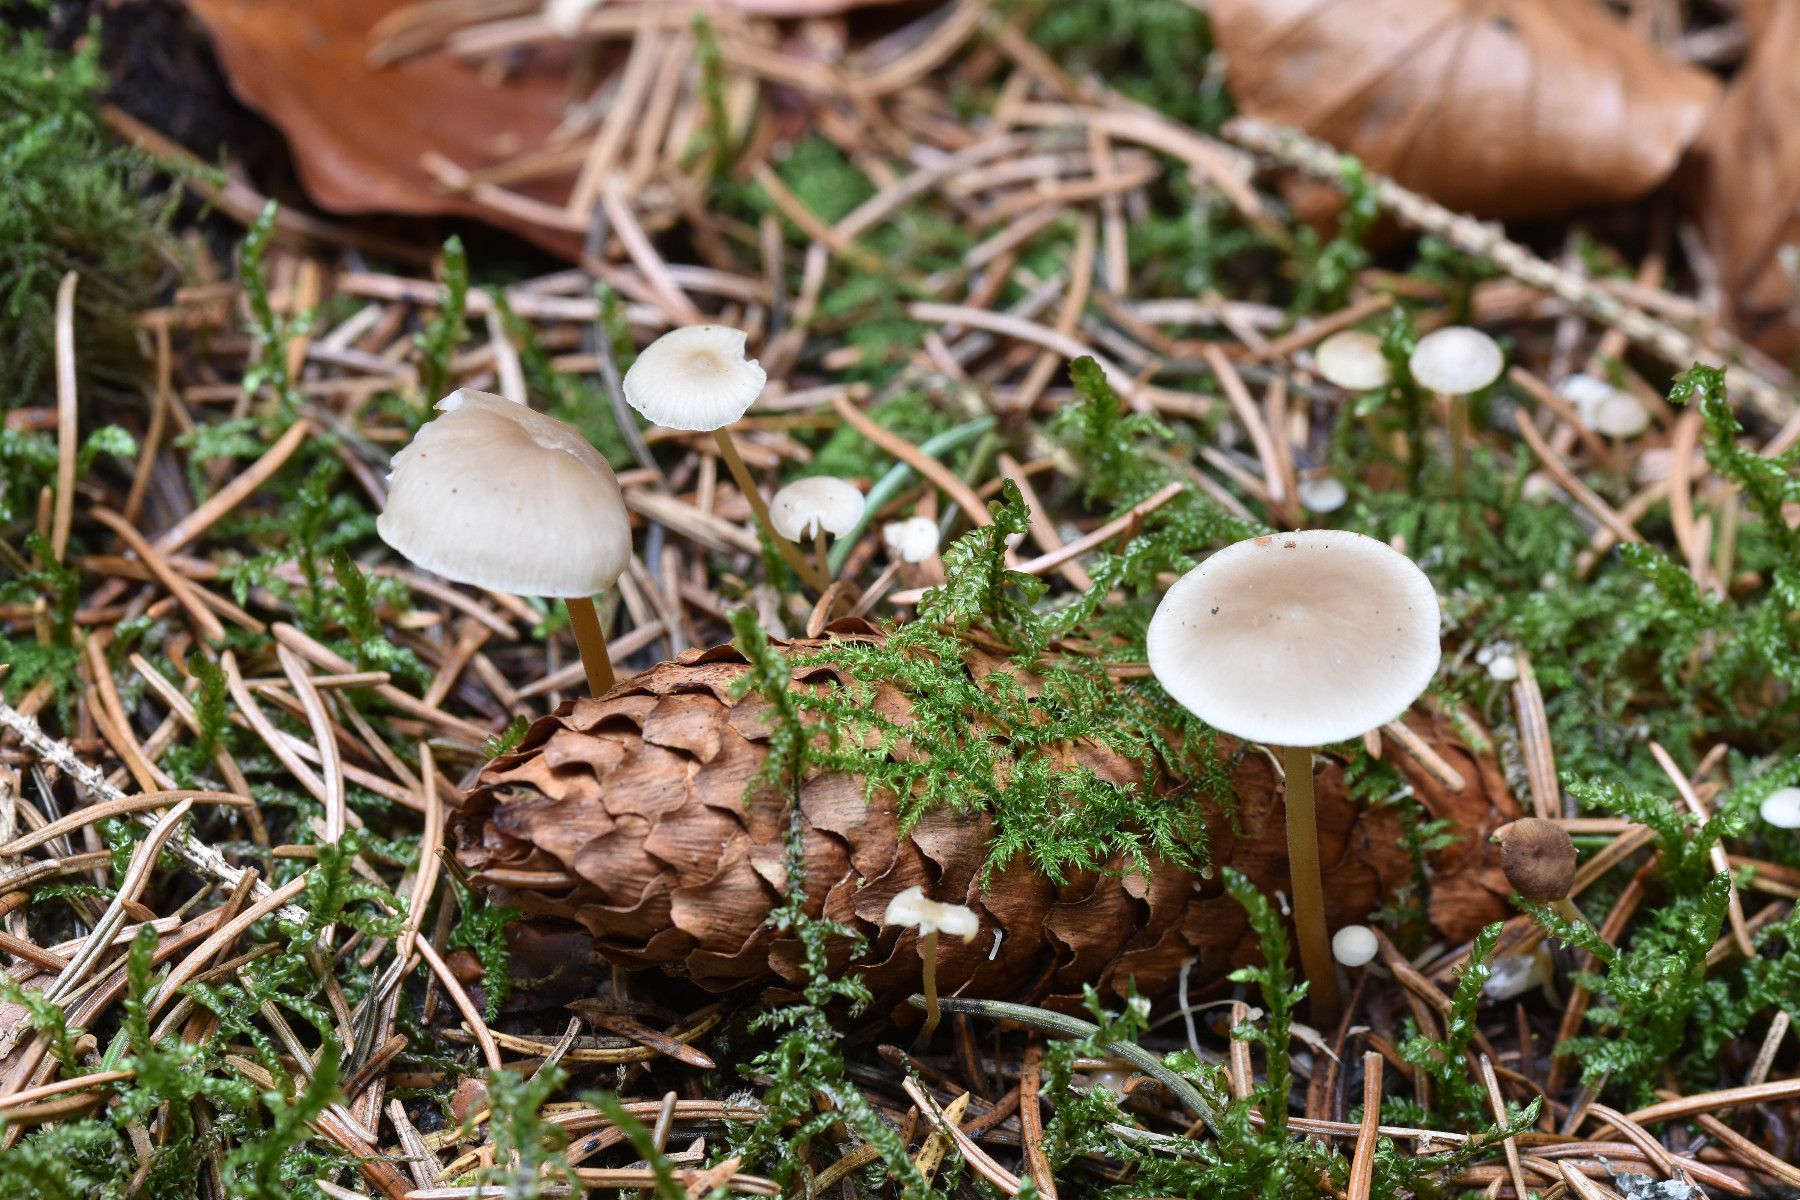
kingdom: Fungi
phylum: Basidiomycota
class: Agaricomycetes
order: Agaricales
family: Physalacriaceae
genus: Strobilurus
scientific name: Strobilurus esculentus
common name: gran-koglehat
